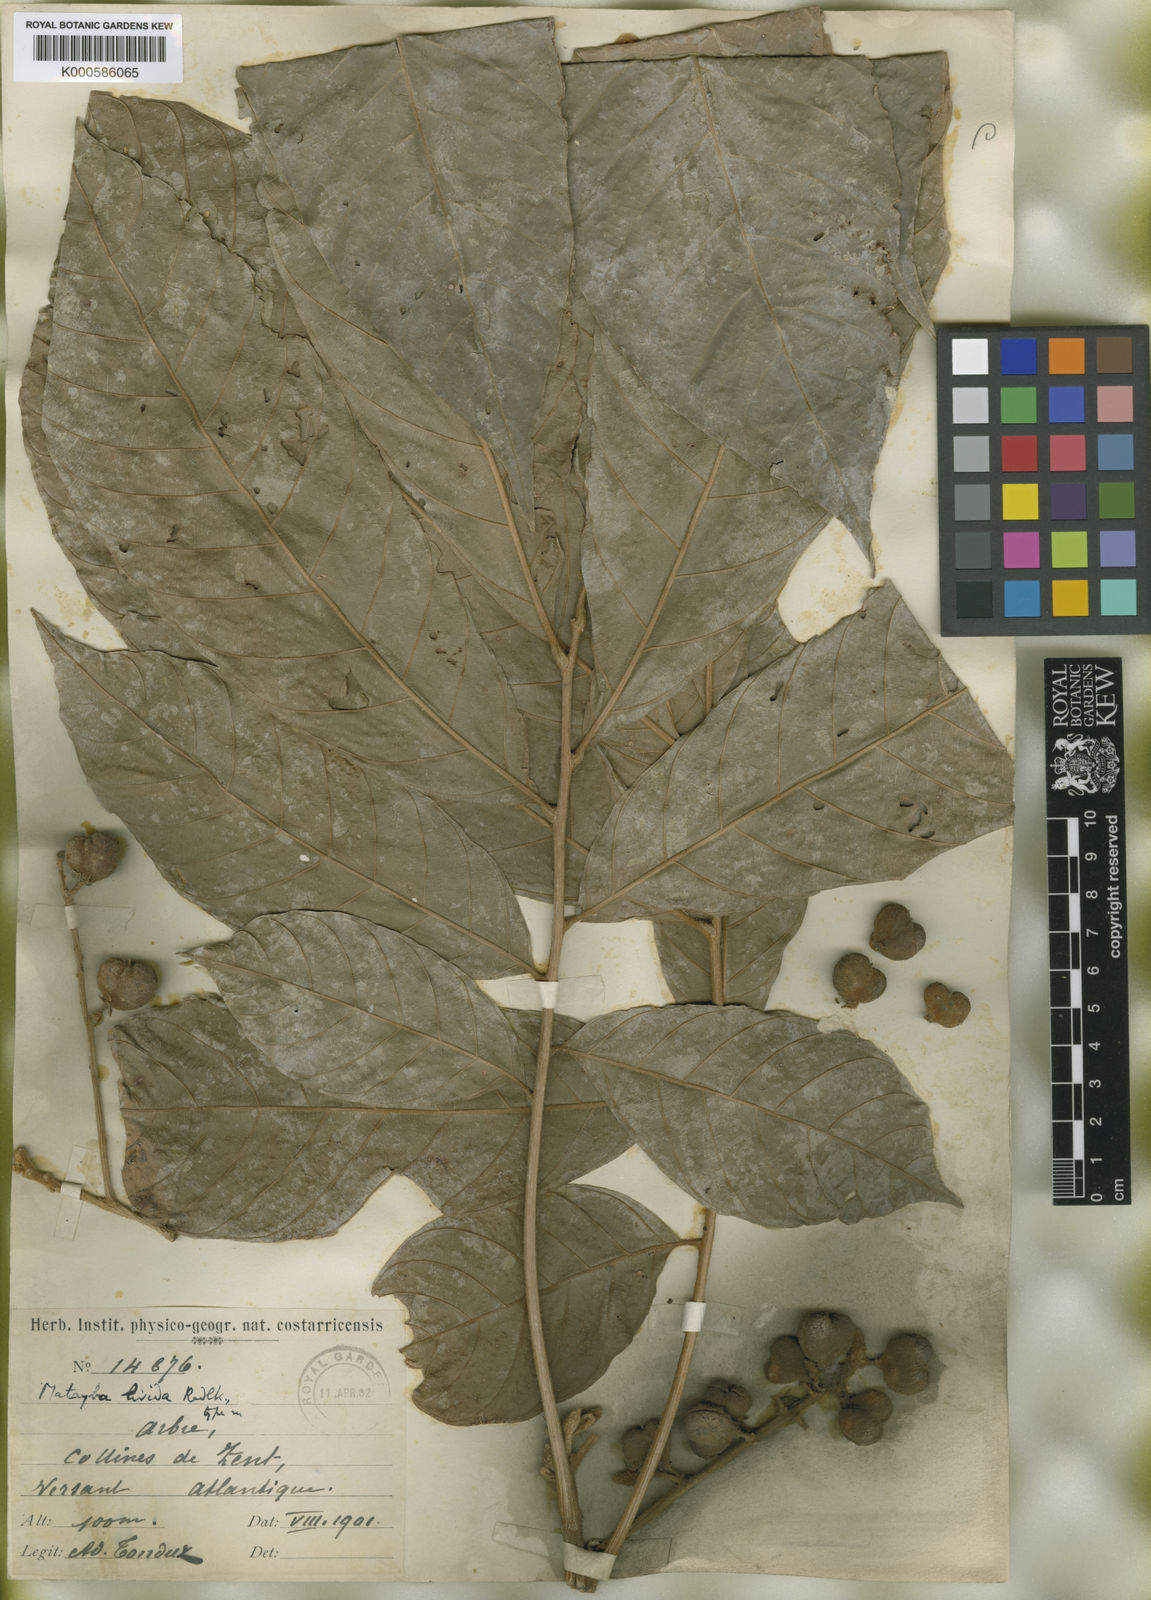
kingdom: Plantae
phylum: Tracheophyta
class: Magnoliopsida
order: Sapindales
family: Sapindaceae
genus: Cupania
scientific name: Cupania livida
